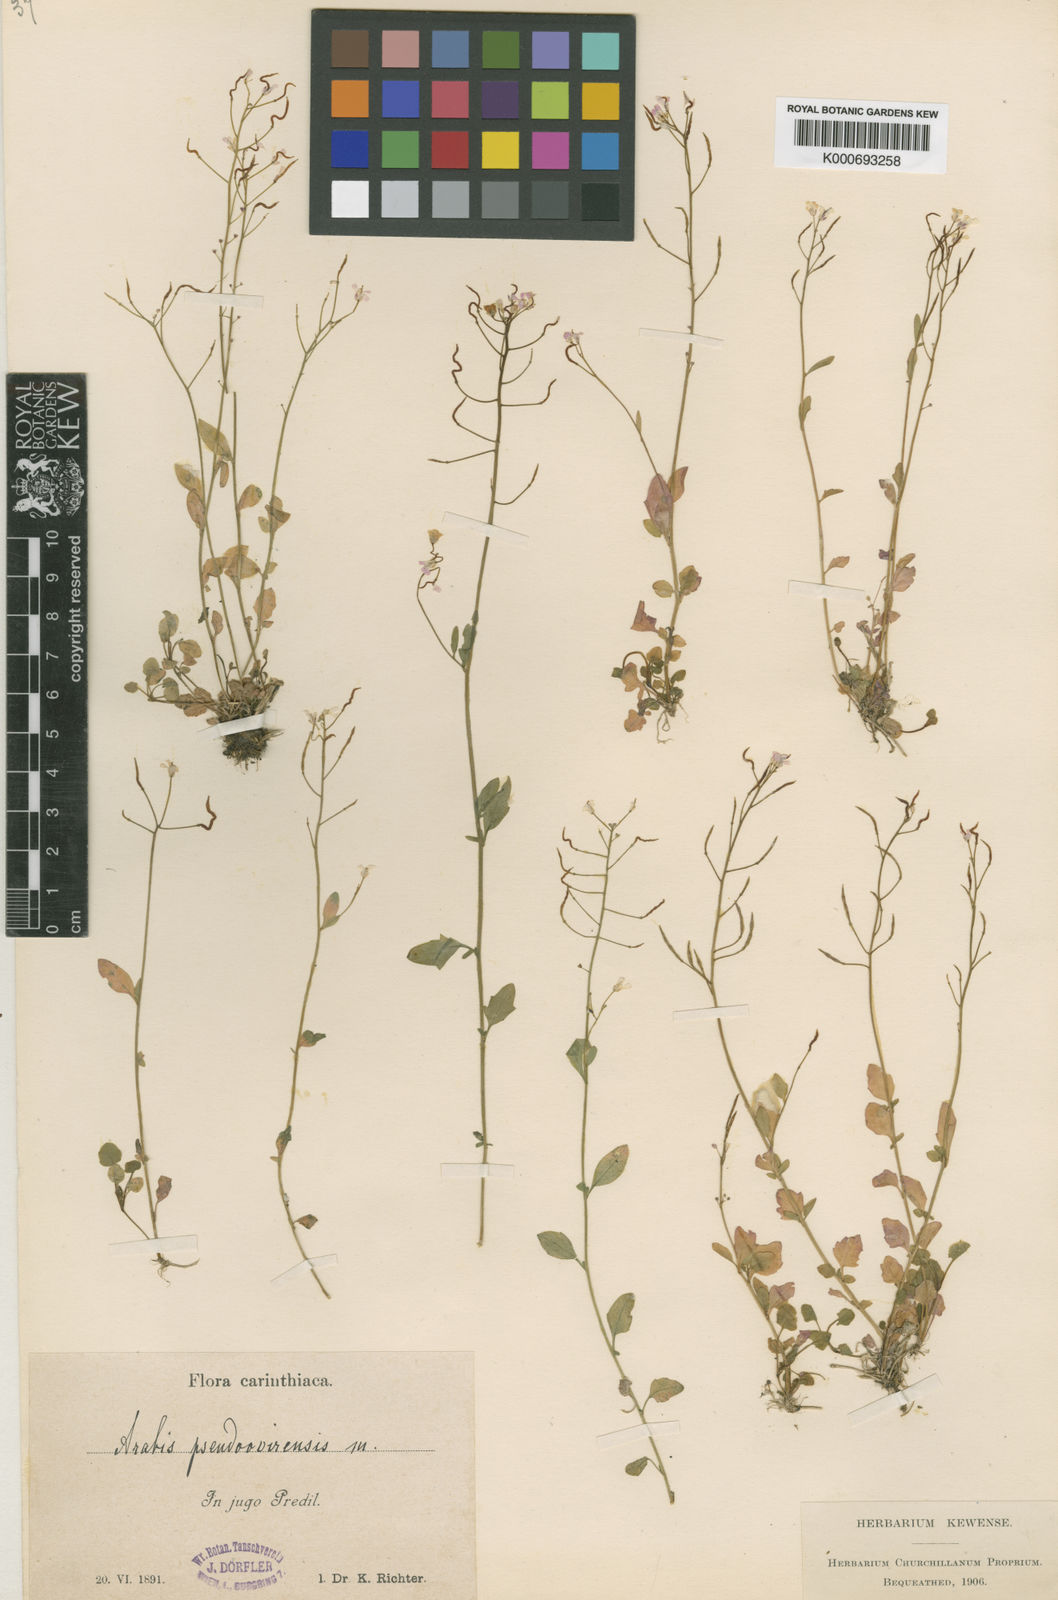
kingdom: Plantae
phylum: Tracheophyta
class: Magnoliopsida
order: Brassicales
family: Brassicaceae
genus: Arabis
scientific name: Arabis
